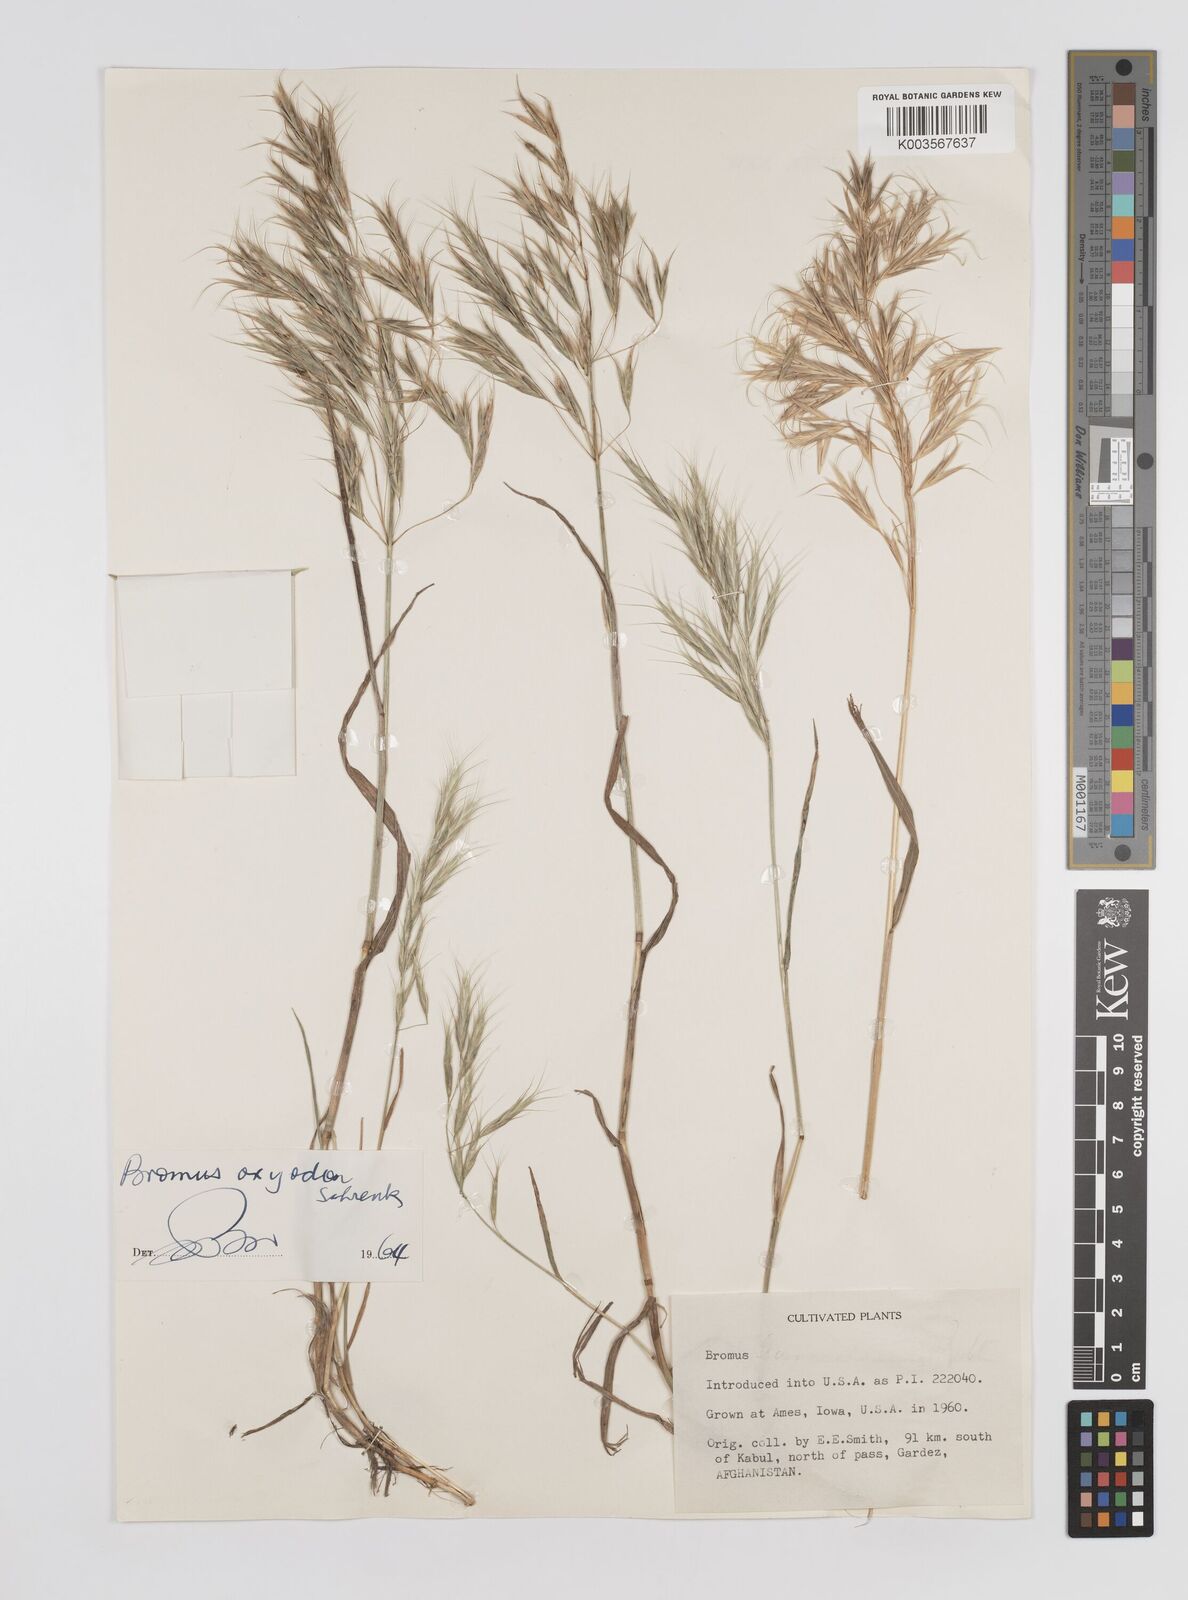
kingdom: Plantae
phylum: Tracheophyta
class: Liliopsida
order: Poales
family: Poaceae
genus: Bromus
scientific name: Bromus oxyodon
